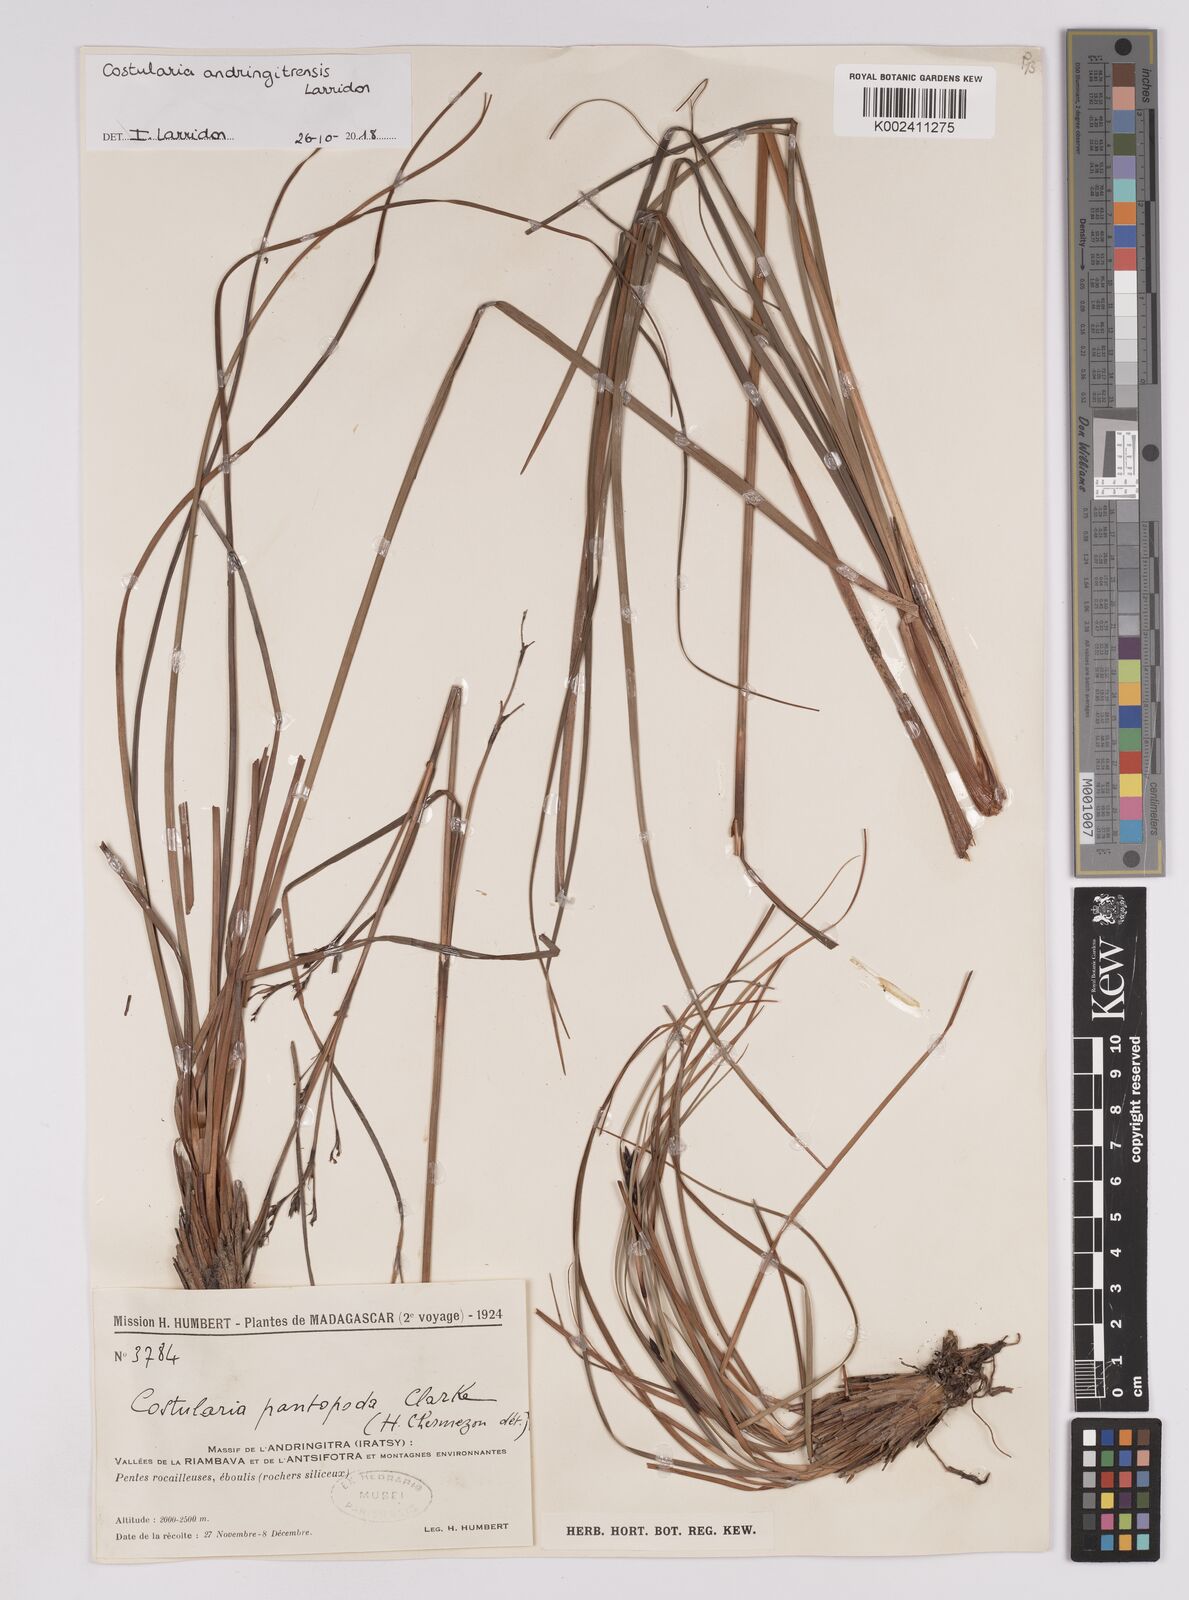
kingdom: Plantae
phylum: Tracheophyta
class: Liliopsida
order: Poales
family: Cyperaceae
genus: Costularia
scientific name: Costularia andringitrensis
